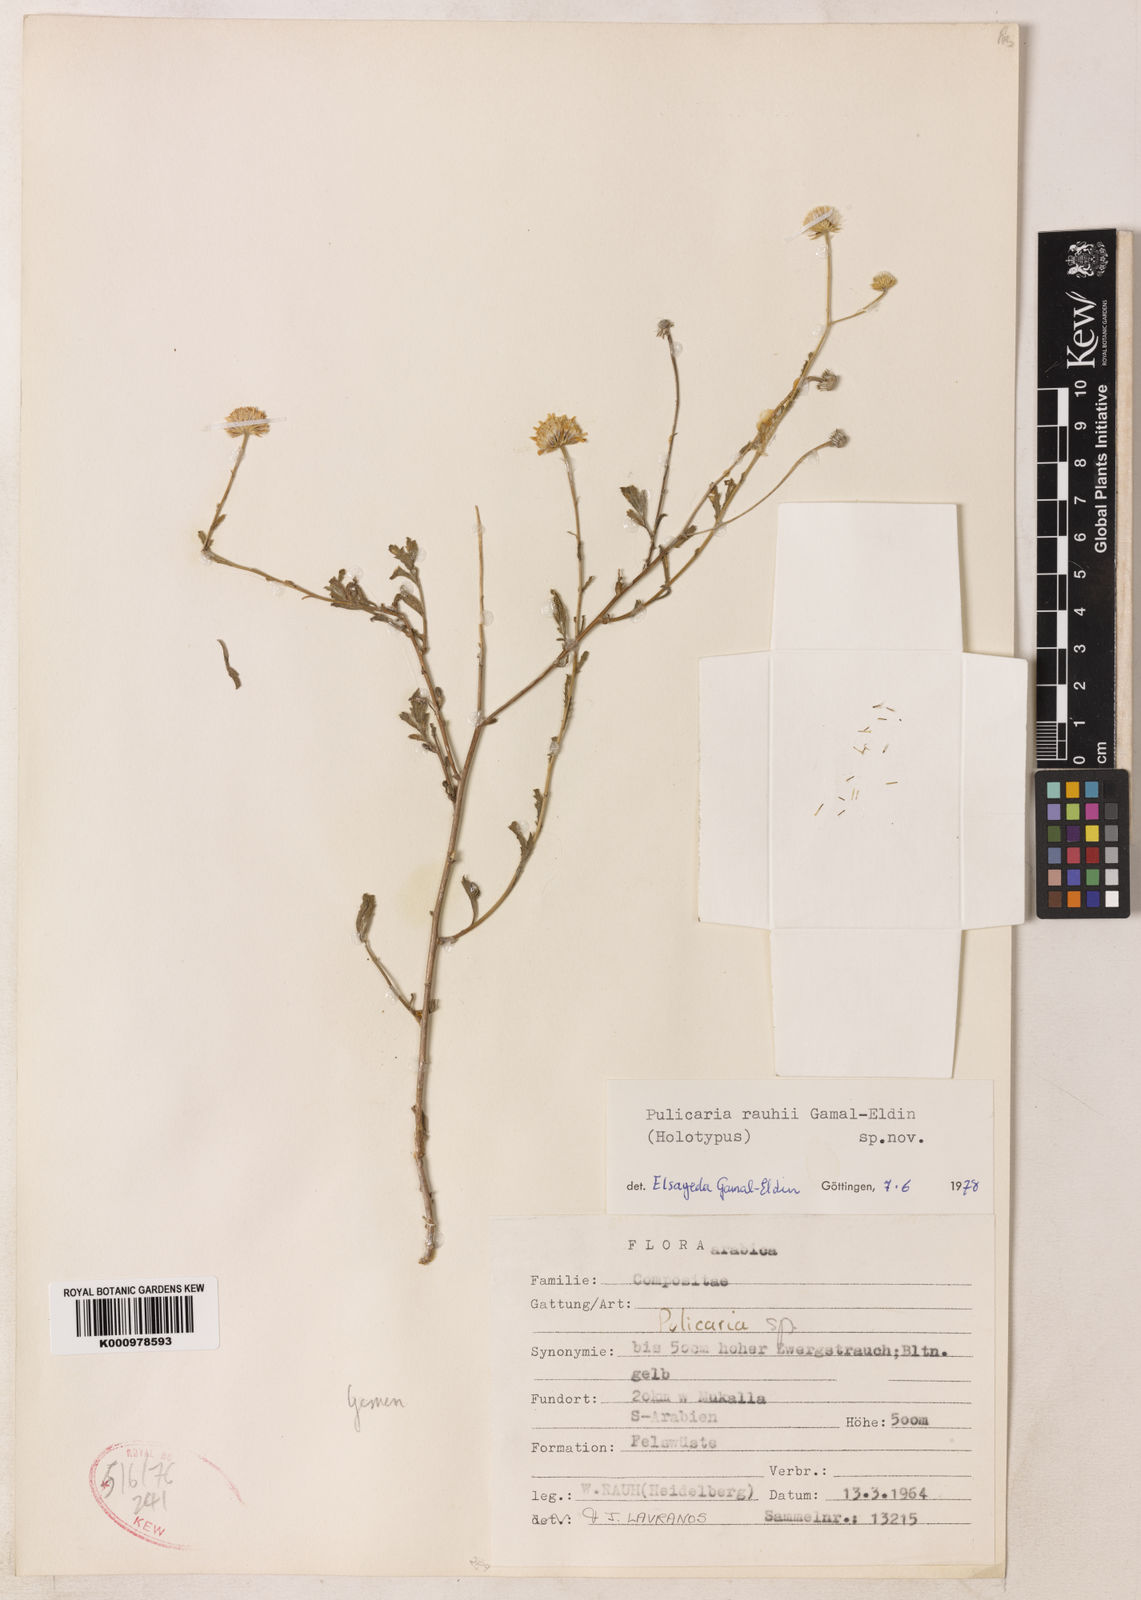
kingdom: Plantae
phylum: Tracheophyta
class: Magnoliopsida
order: Asterales
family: Asteraceae
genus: Pulicaria
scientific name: Pulicaria rauhii
